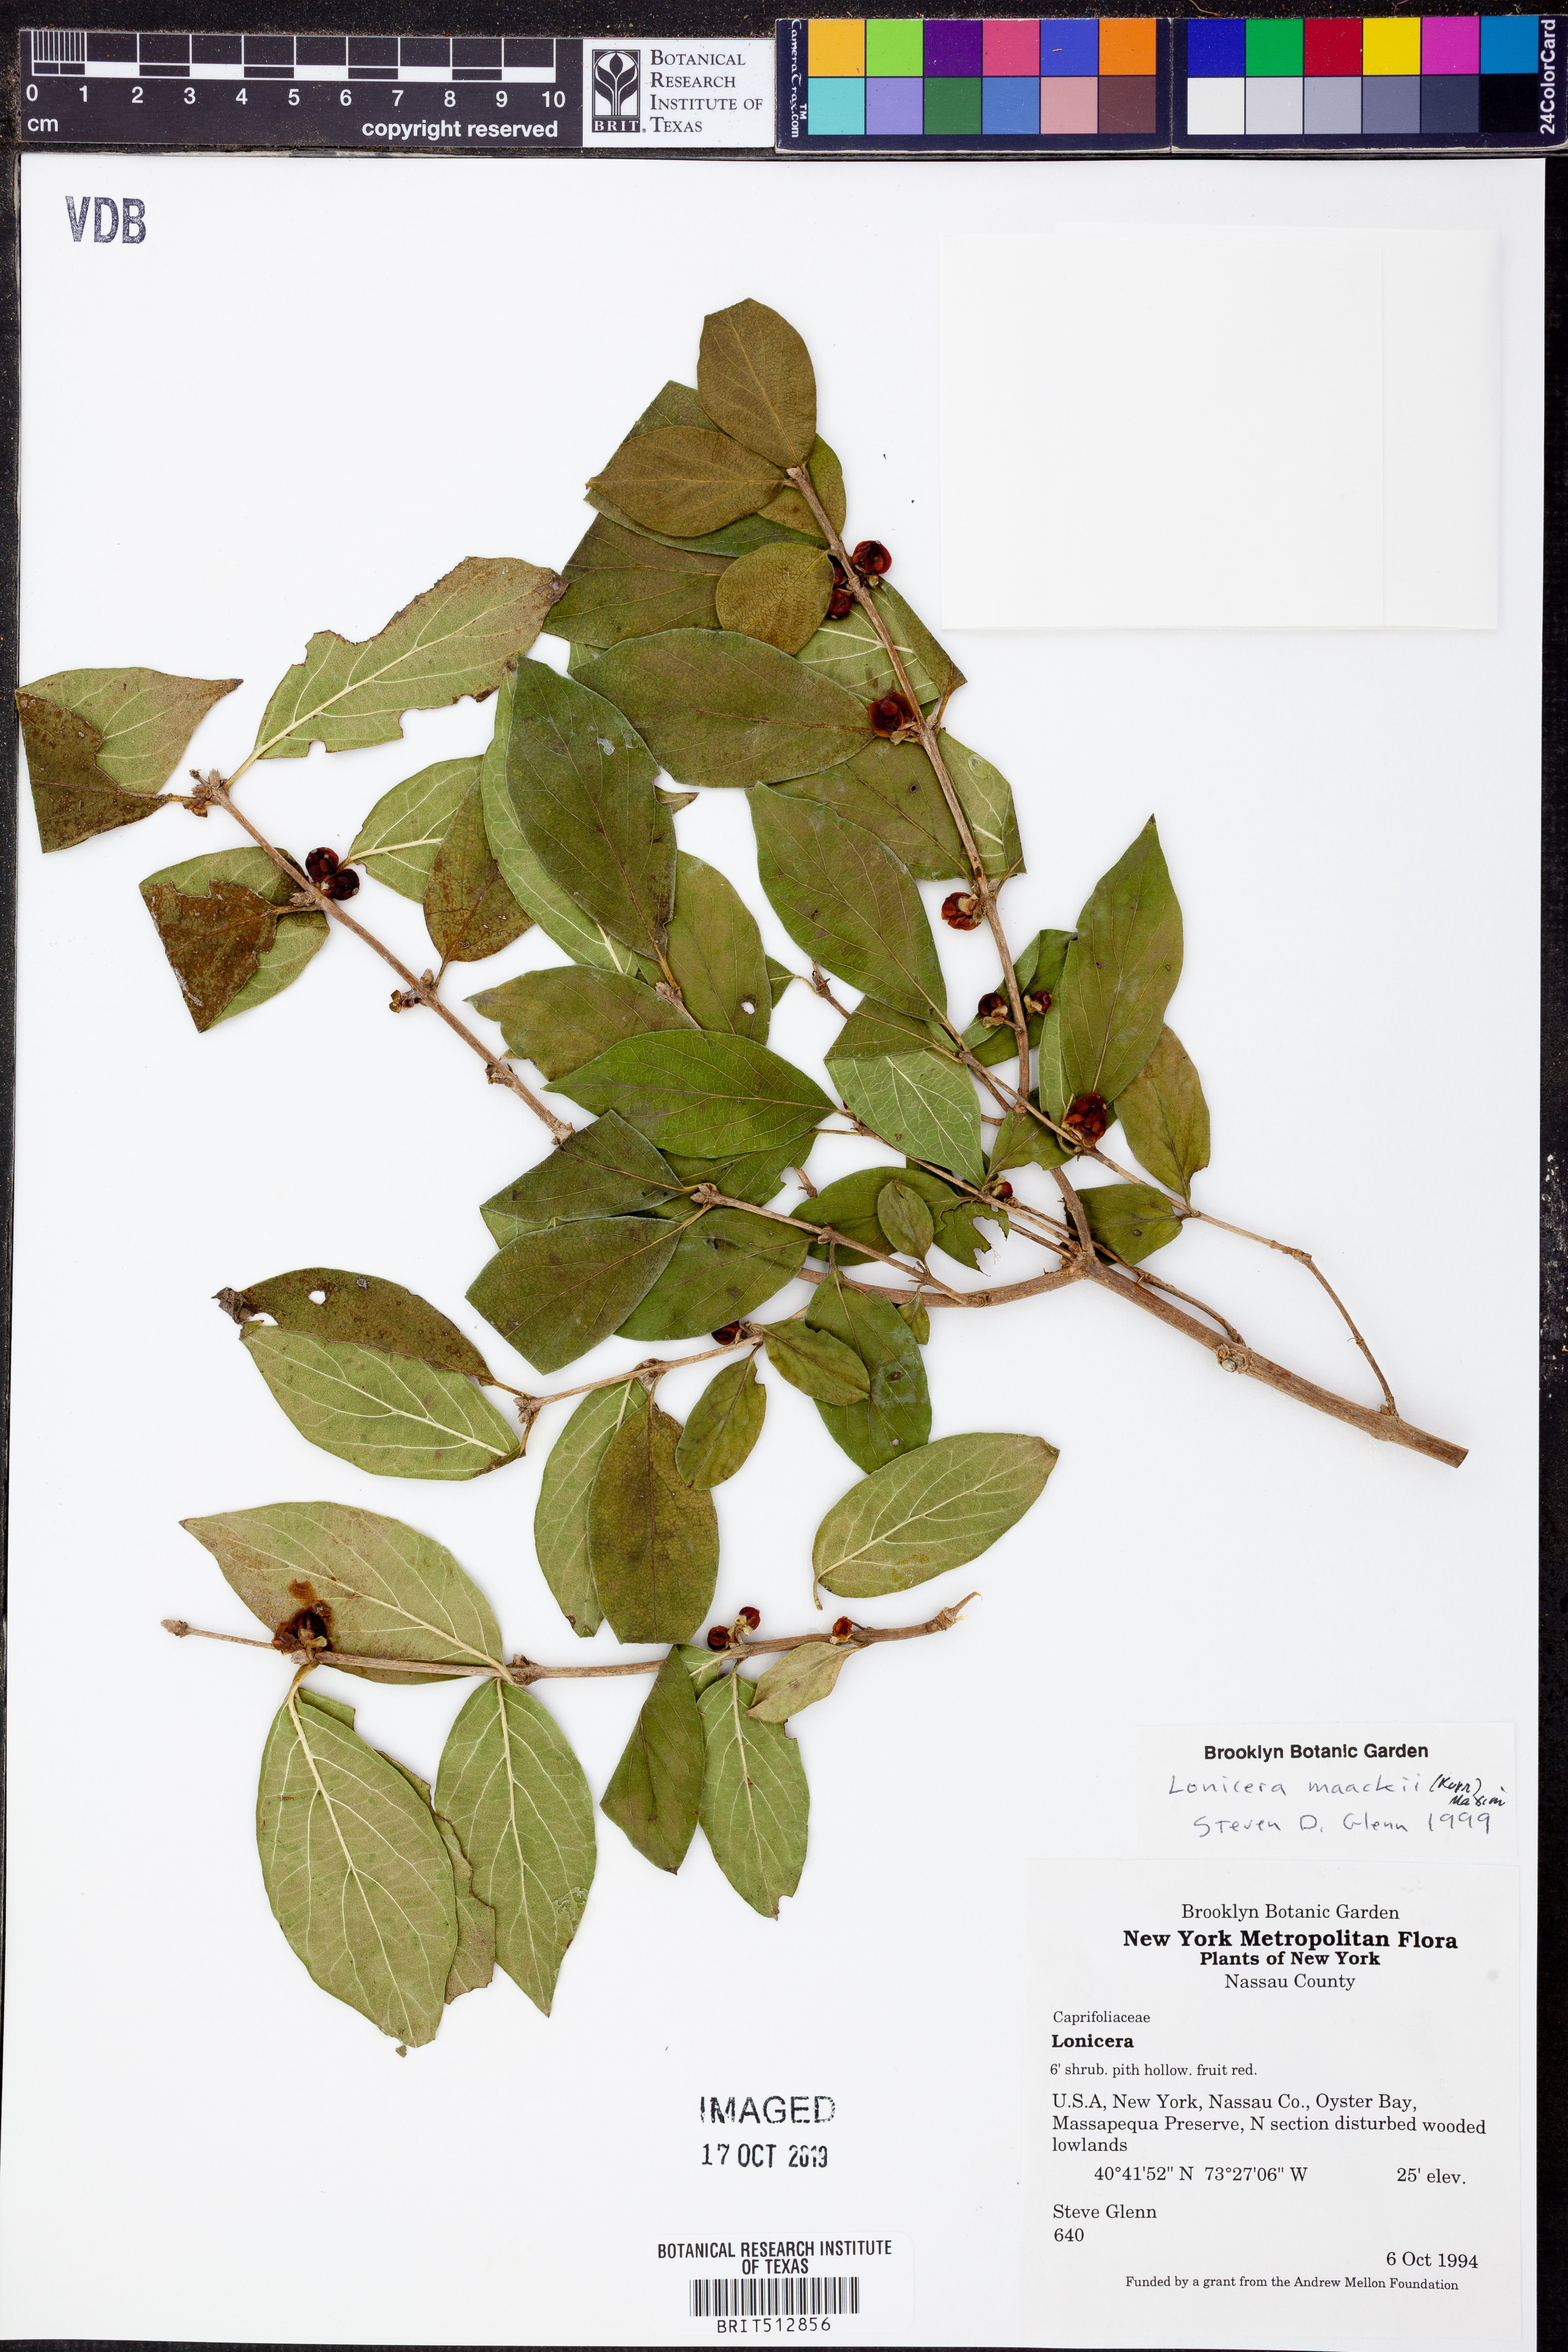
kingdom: Plantae
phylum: Tracheophyta
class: Magnoliopsida
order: Dipsacales
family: Caprifoliaceae
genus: Lonicera
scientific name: Lonicera maackii
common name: Amur honeysuckle
